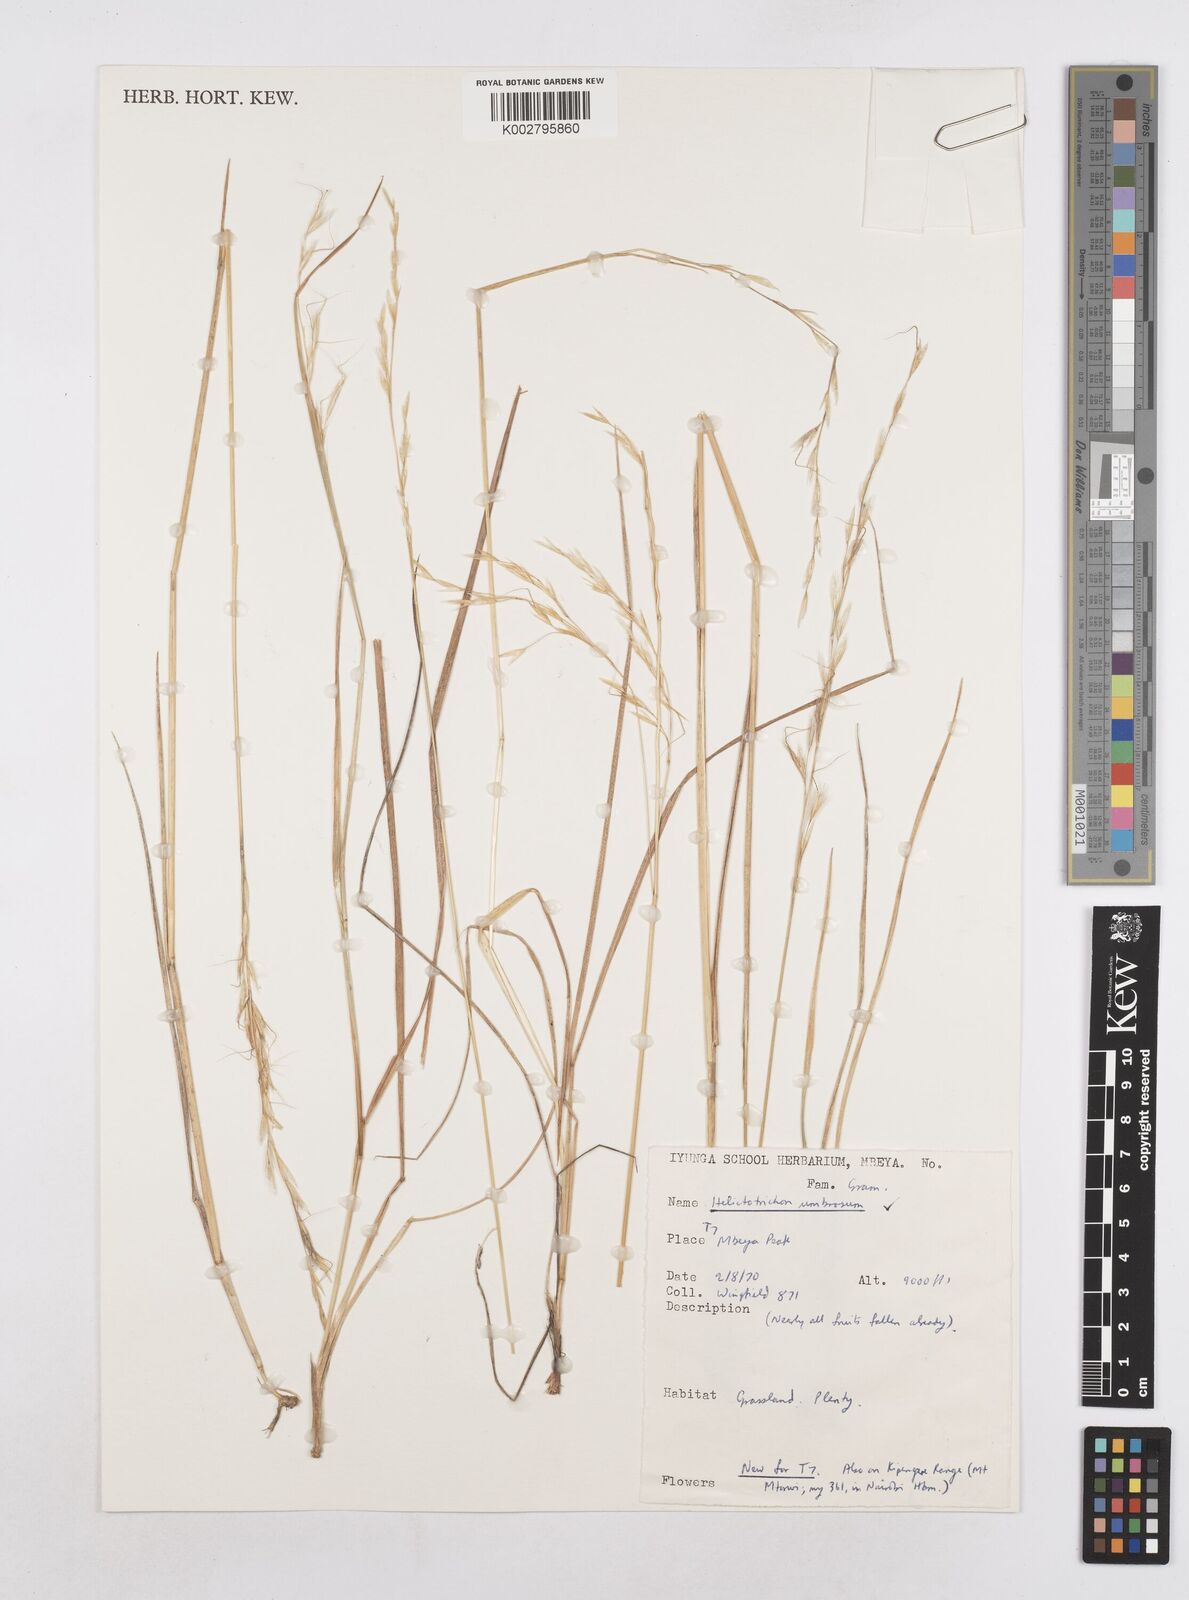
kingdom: Plantae
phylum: Tracheophyta
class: Liliopsida
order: Poales
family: Poaceae
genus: Trisetopsis
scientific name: Trisetopsis umbrosa
